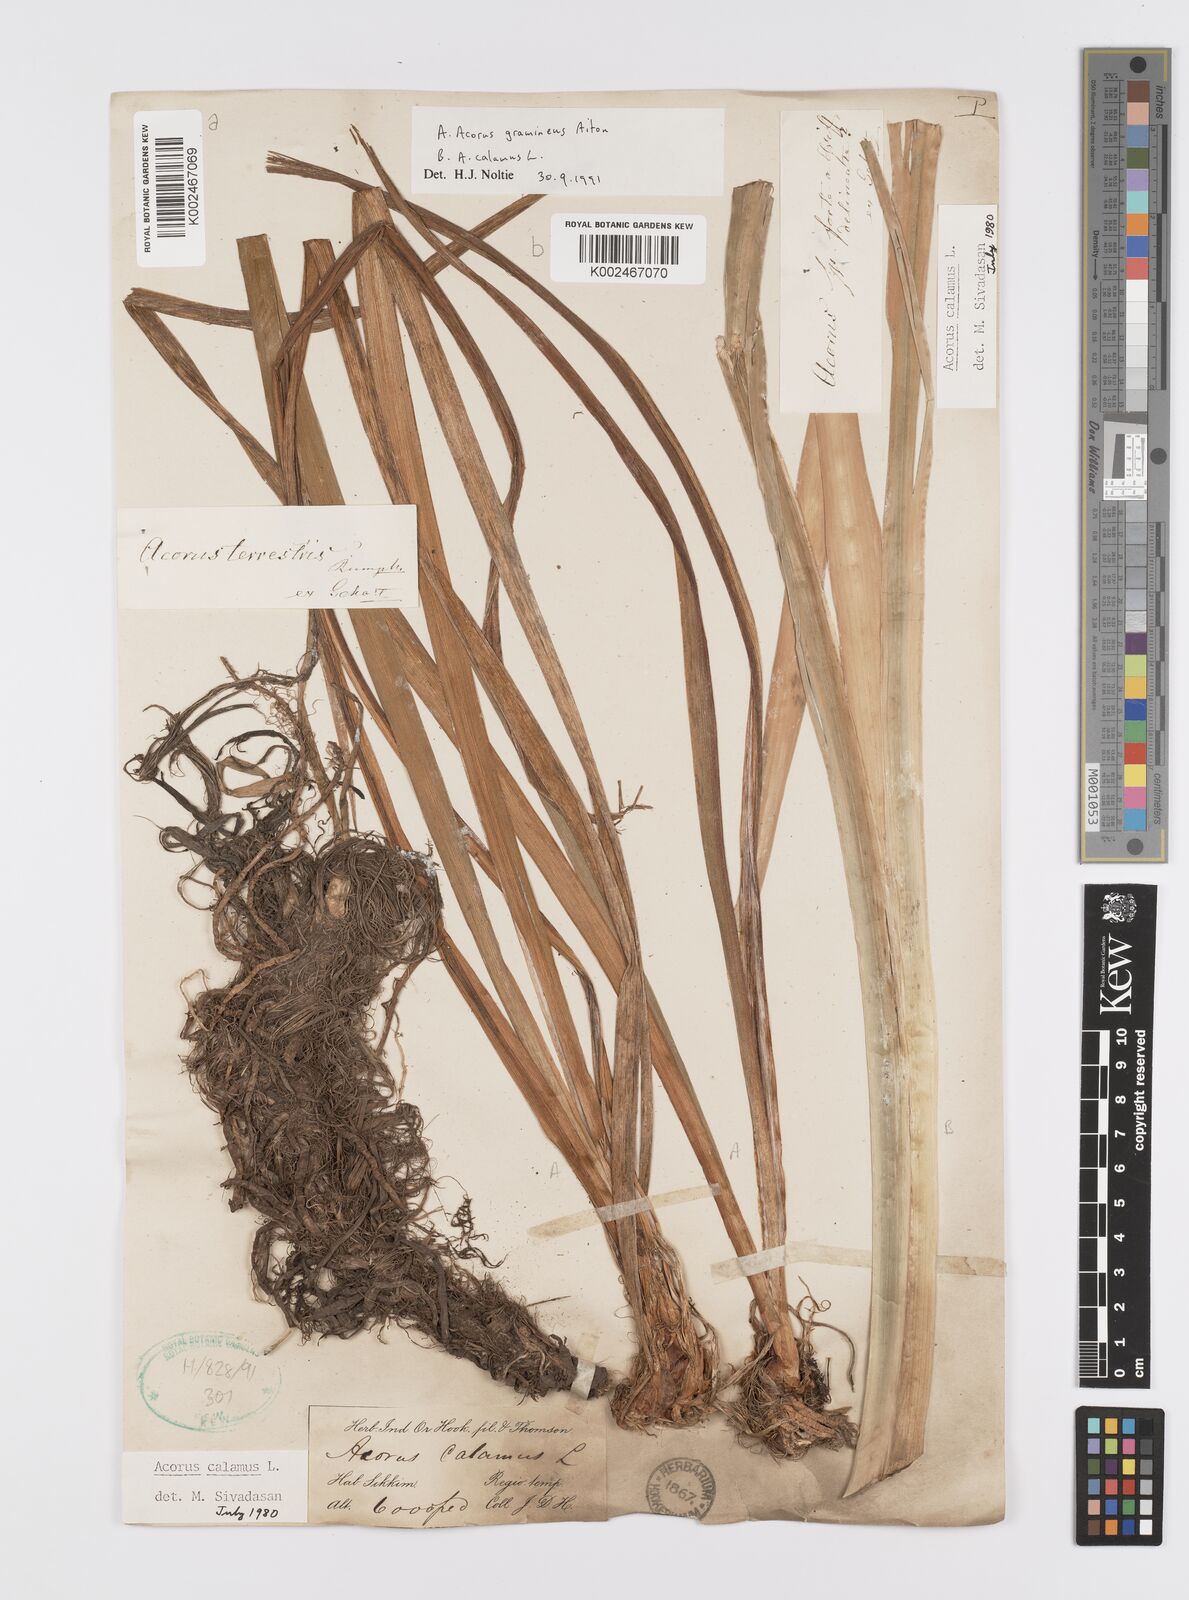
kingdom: Plantae
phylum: Tracheophyta
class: Liliopsida
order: Acorales
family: Acoraceae
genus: Acorus
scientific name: Acorus calamus
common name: Sweet-flag
